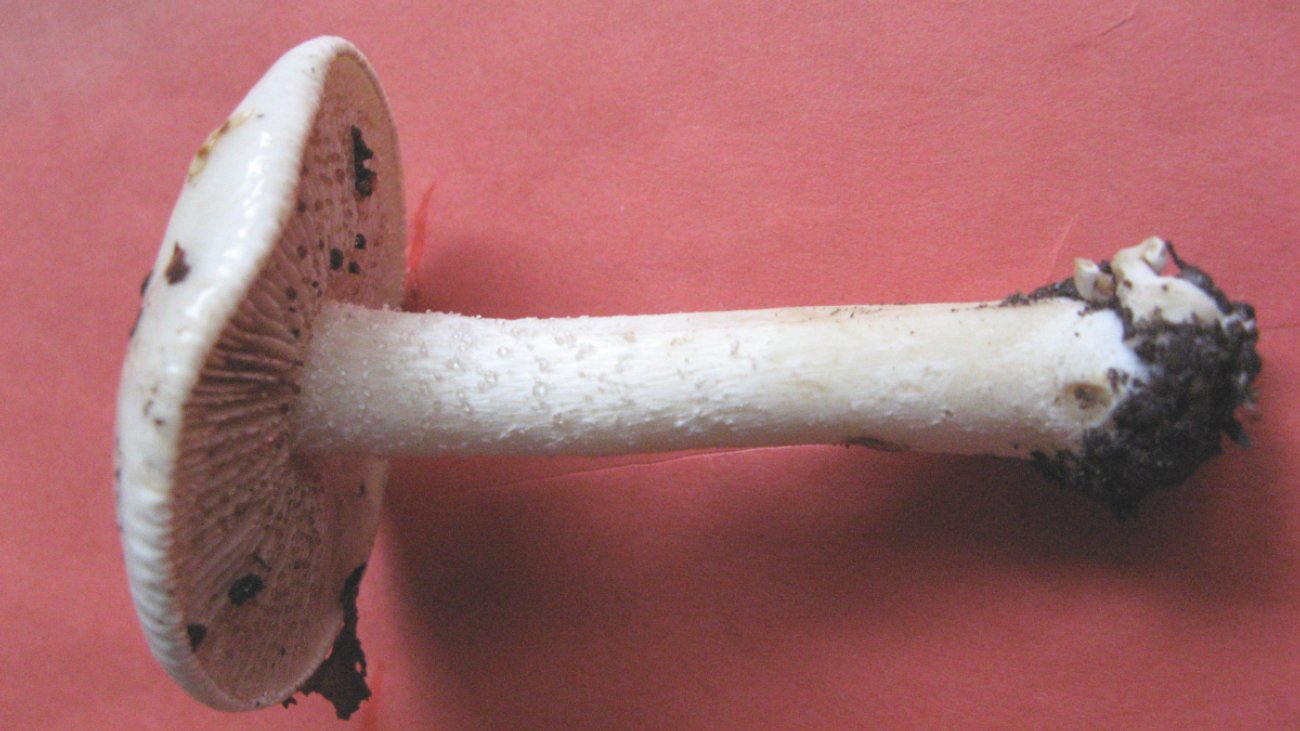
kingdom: Fungi
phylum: Basidiomycota
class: Agaricomycetes
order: Agaricales
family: Hymenogastraceae
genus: Hebeloma
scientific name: Hebeloma eburneum
